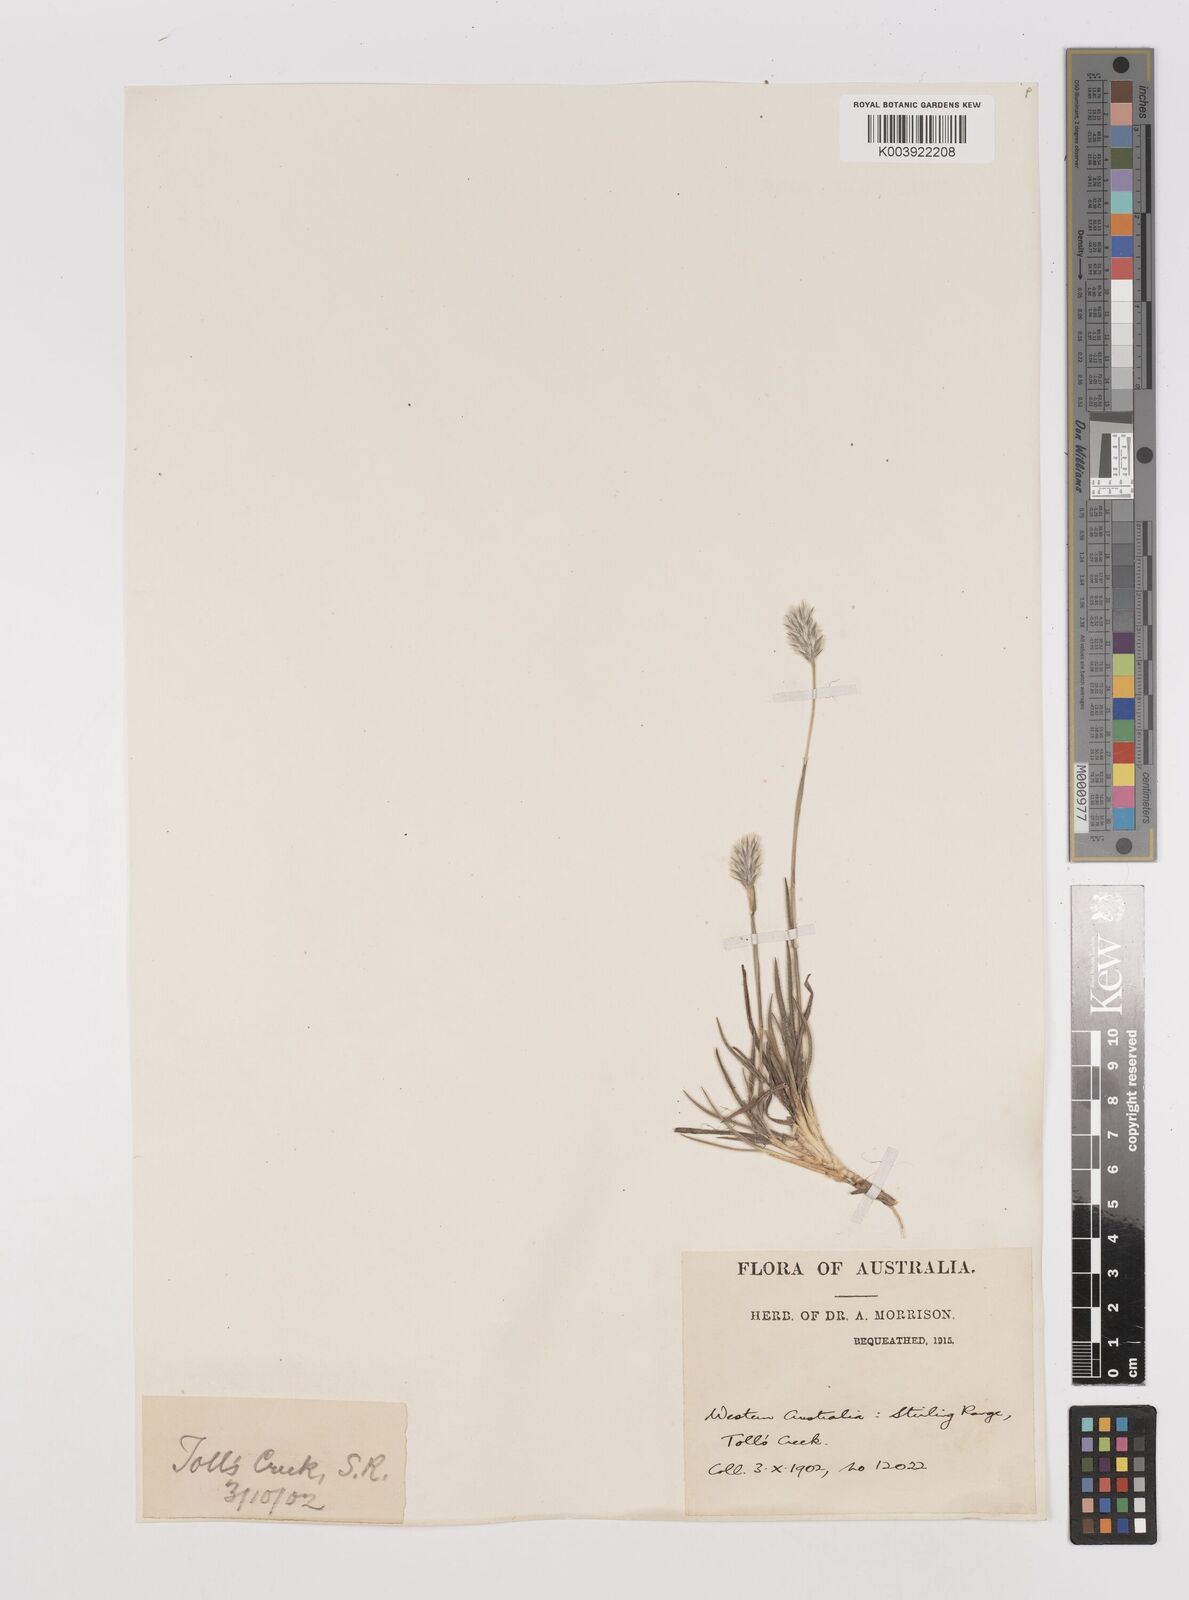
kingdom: Plantae
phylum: Tracheophyta
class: Liliopsida
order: Poales
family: Poaceae
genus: Neurachne
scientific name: Neurachne alopecuroidea
